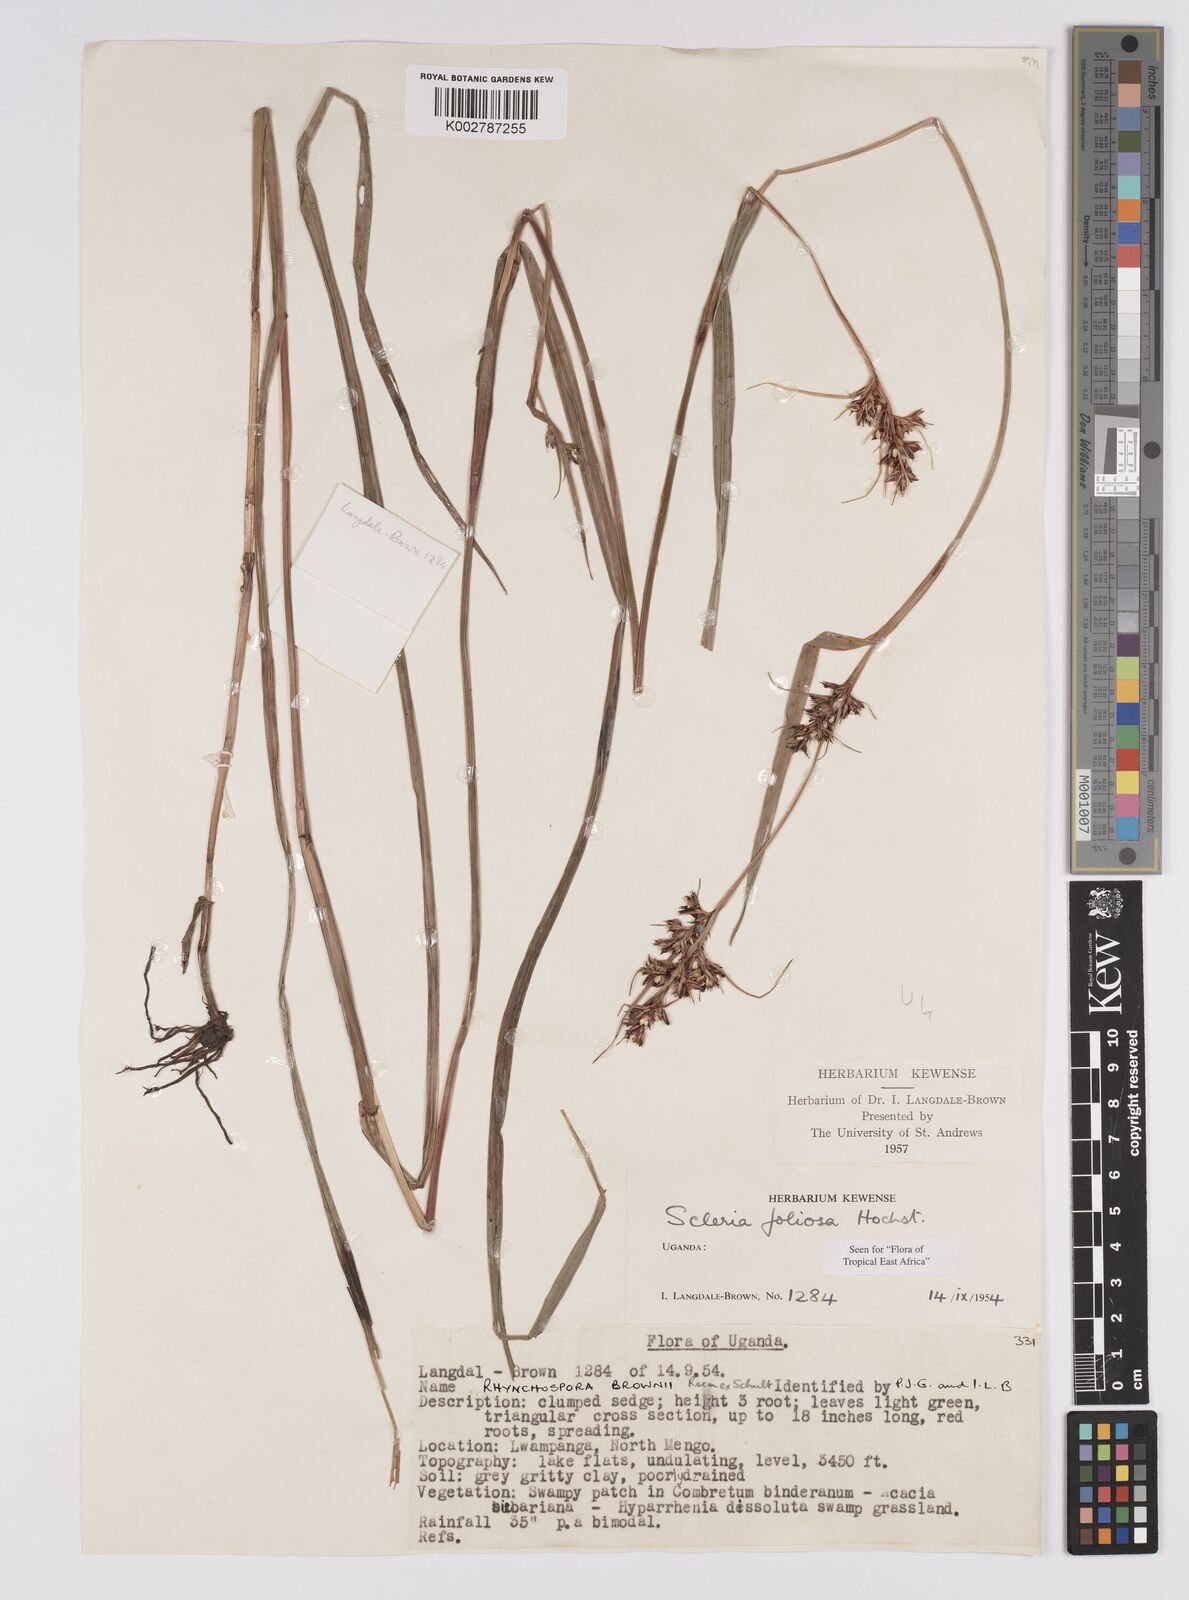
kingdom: Plantae
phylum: Tracheophyta
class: Liliopsida
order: Poales
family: Cyperaceae
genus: Scleria
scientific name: Scleria foliosa
